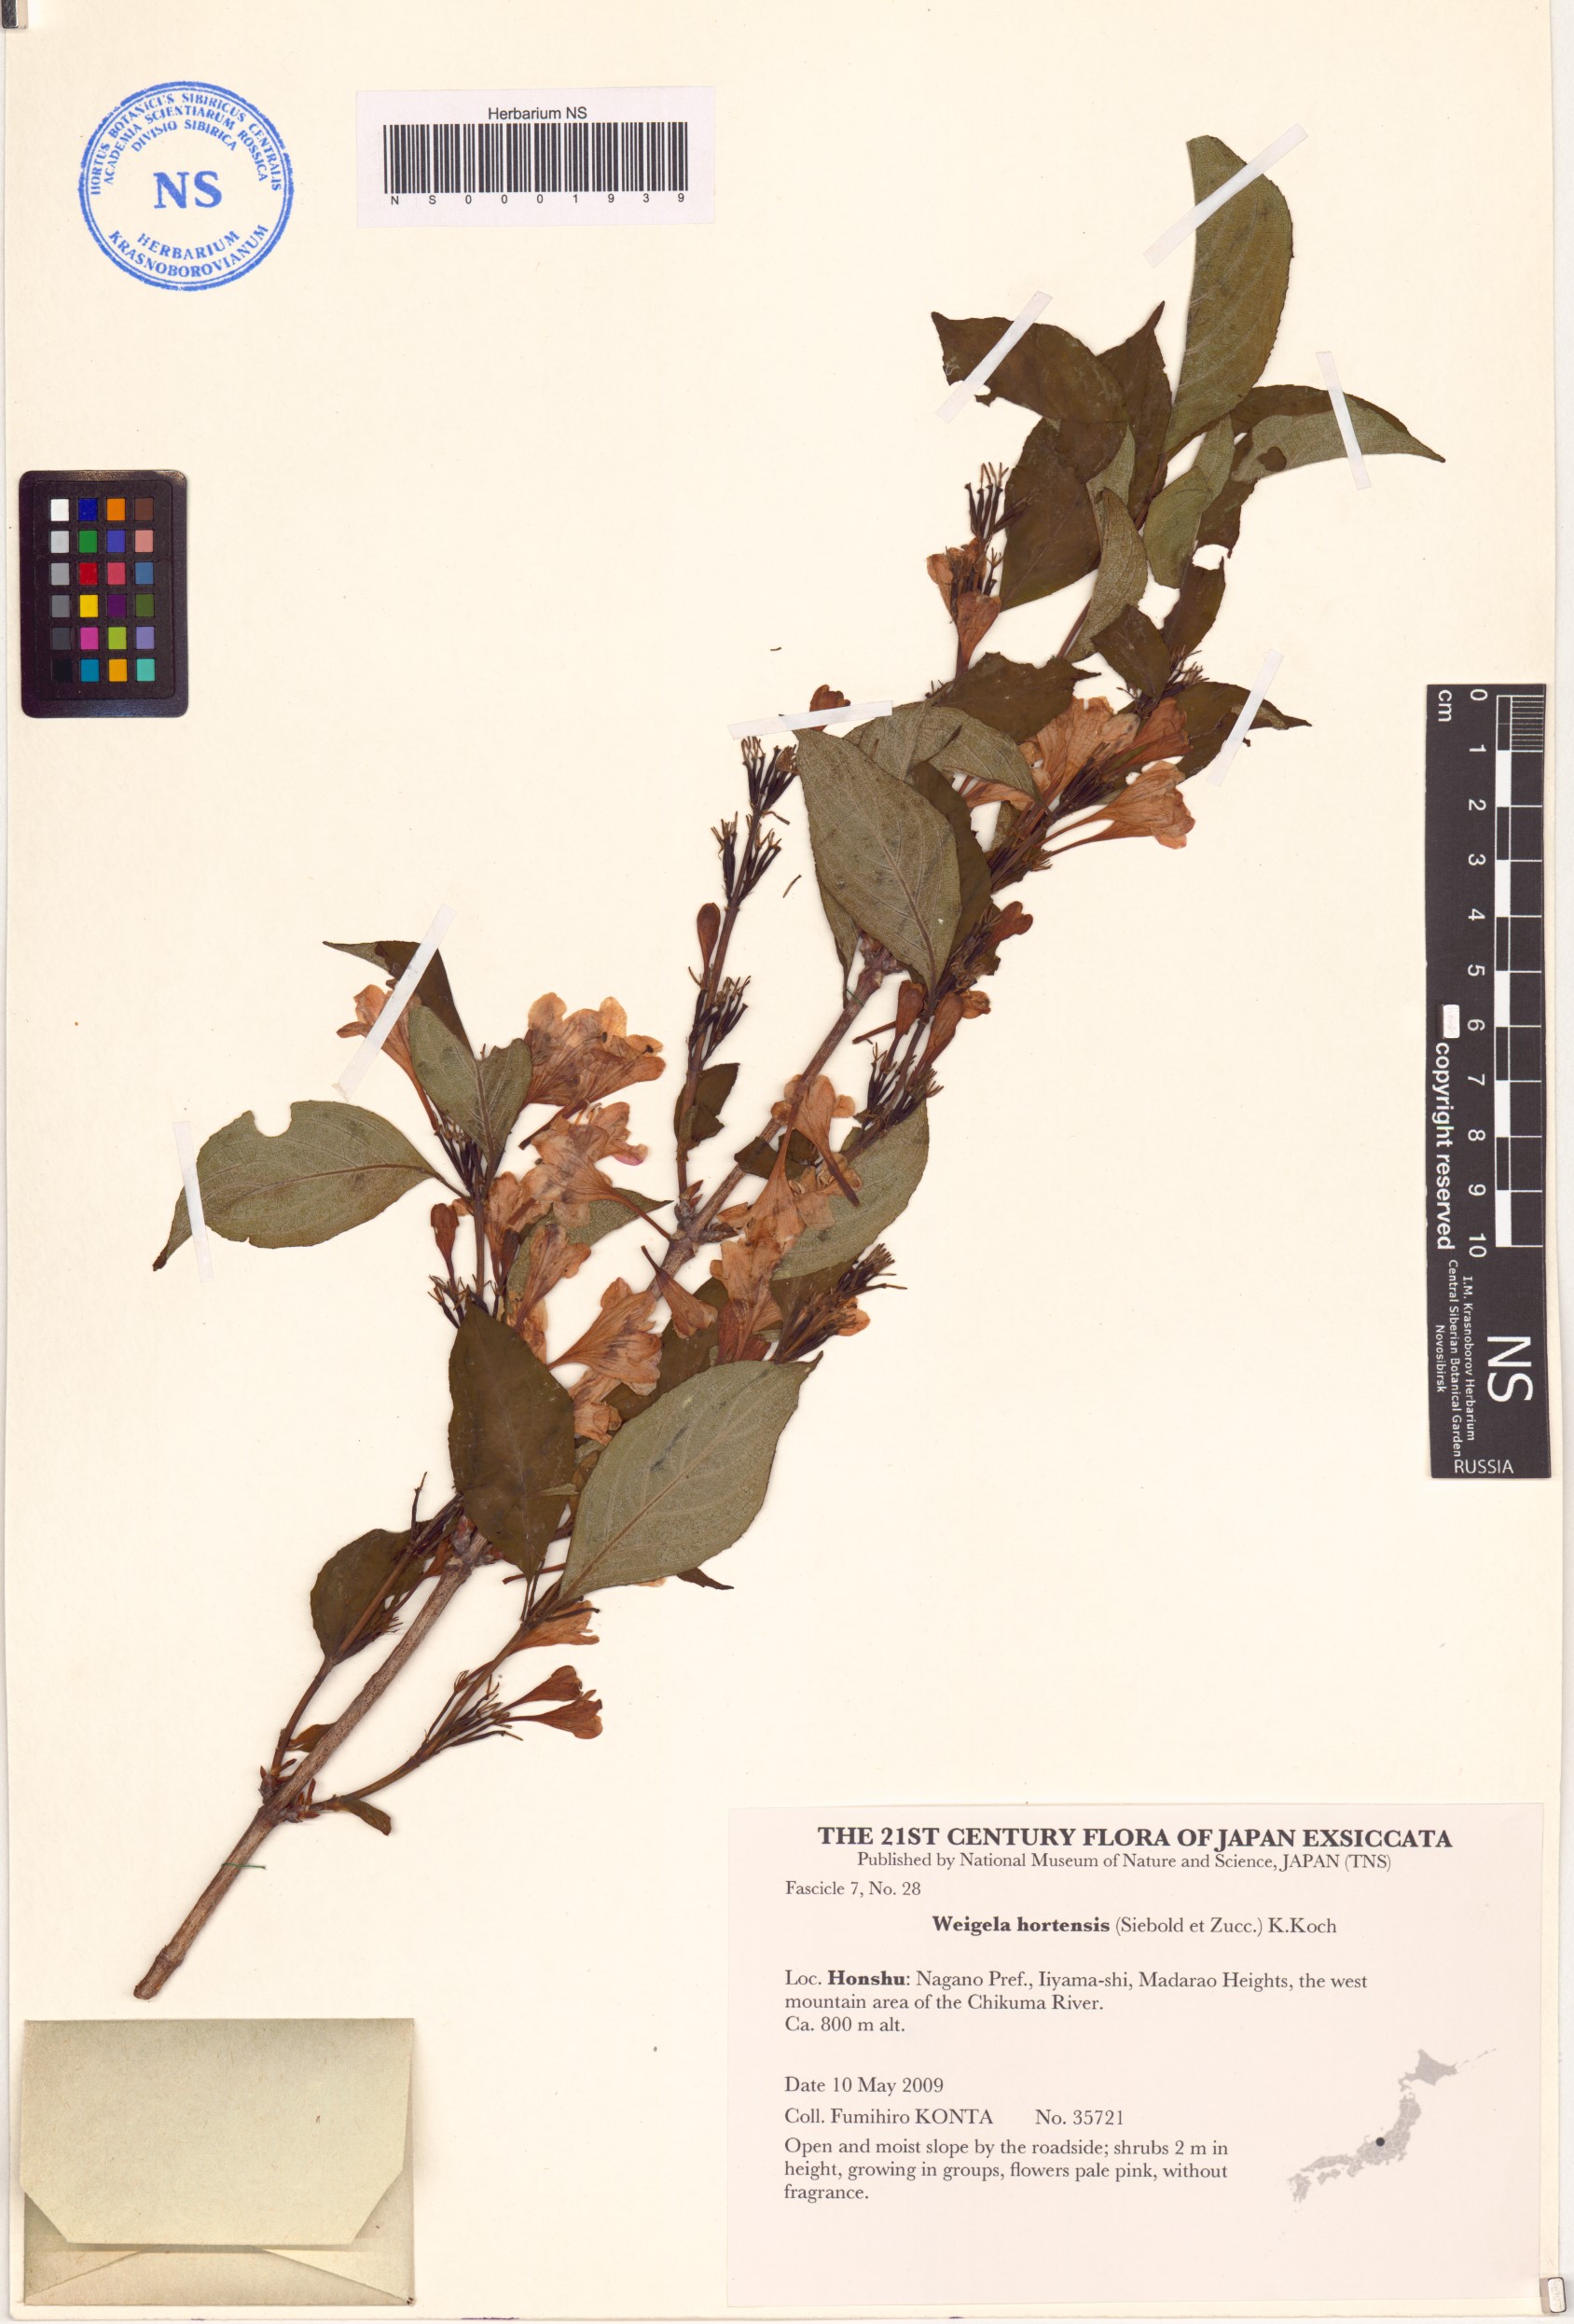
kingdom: Plantae
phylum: Tracheophyta
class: Magnoliopsida
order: Dipsacales
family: Caprifoliaceae
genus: Weigela
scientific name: Weigela hortensis
